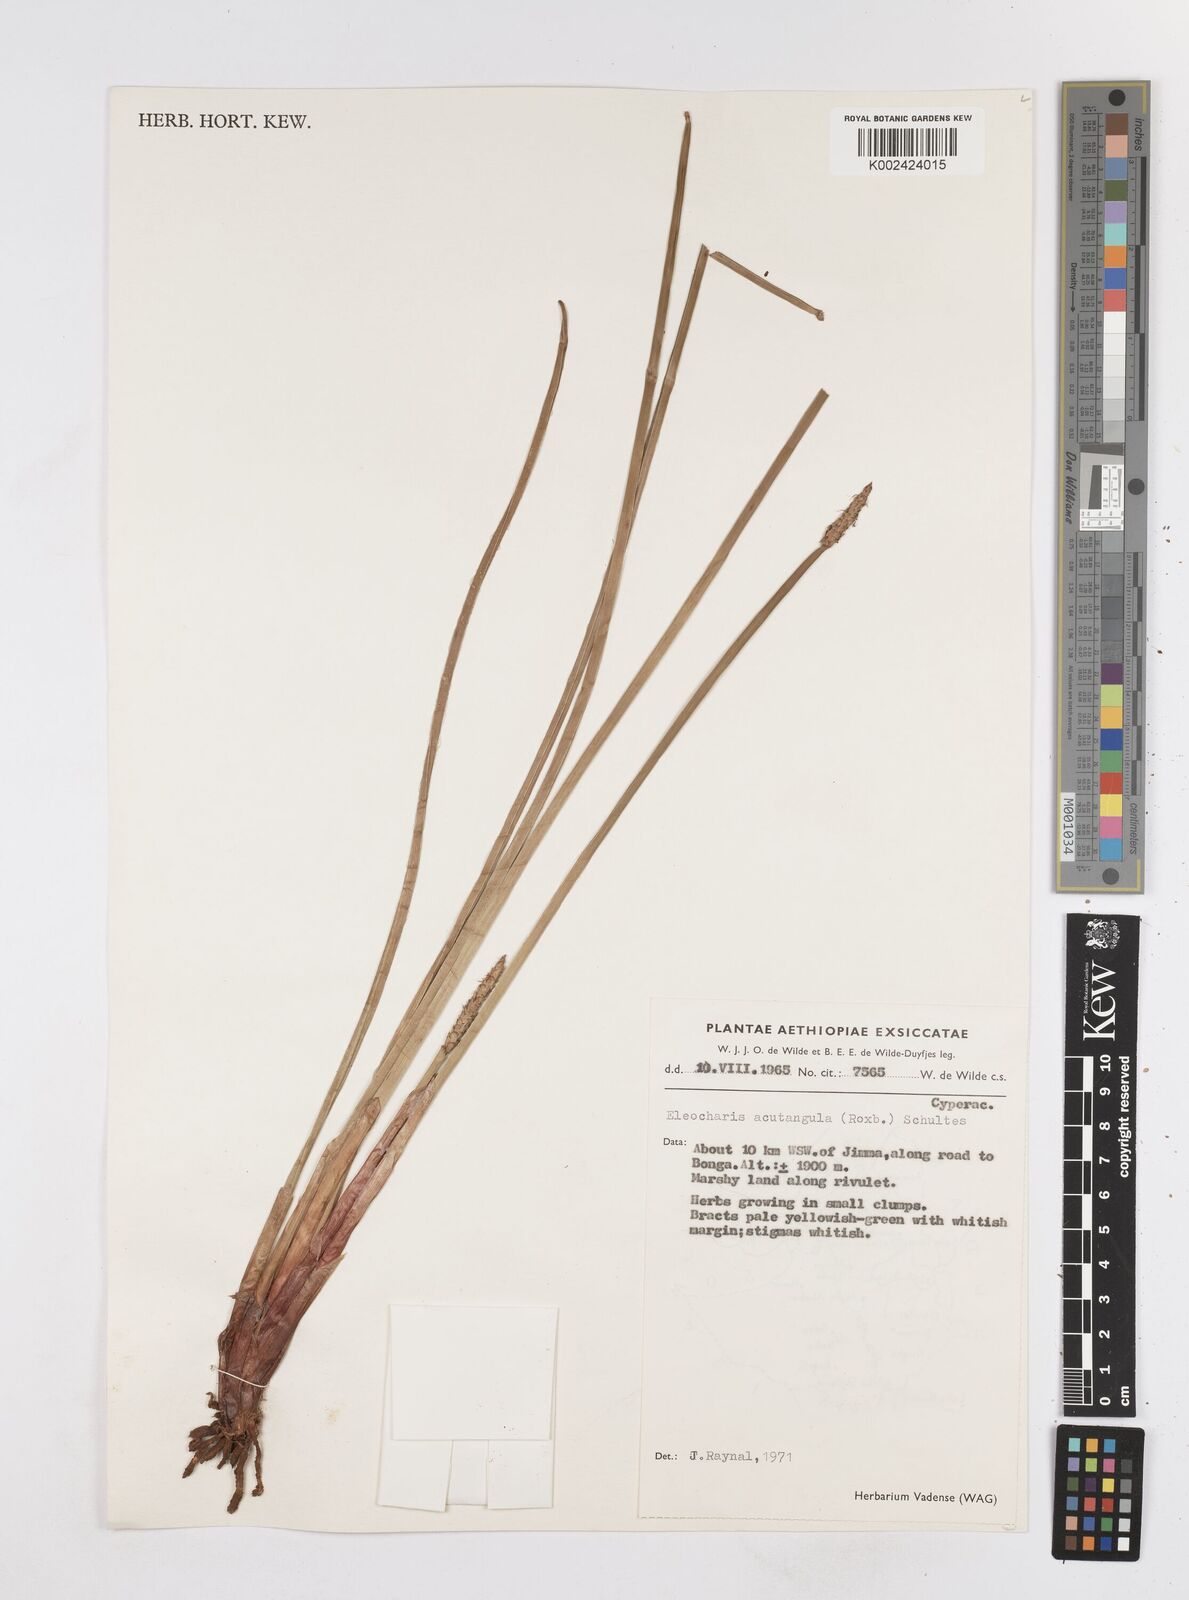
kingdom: Plantae
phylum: Tracheophyta
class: Liliopsida
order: Poales
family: Cyperaceae
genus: Eleocharis
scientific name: Eleocharis acutangula
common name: Acute spikerush
